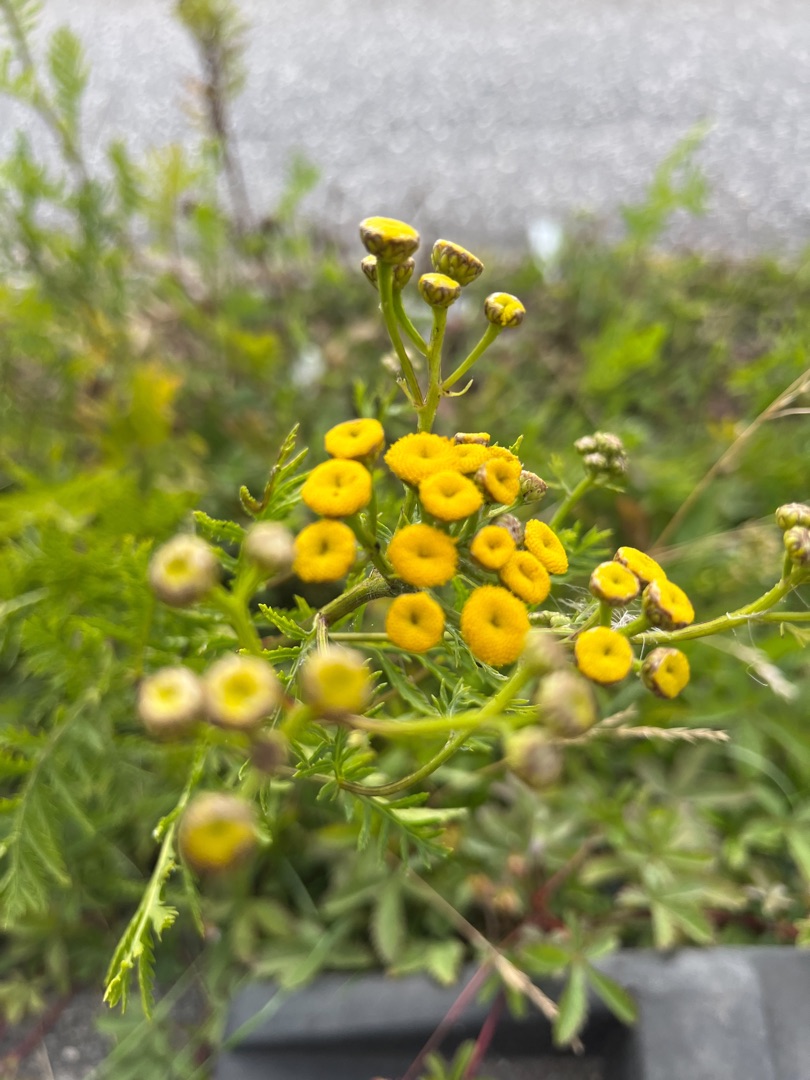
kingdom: Plantae
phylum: Tracheophyta
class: Magnoliopsida
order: Asterales
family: Asteraceae
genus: Tanacetum
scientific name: Tanacetum vulgare
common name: Rejnfan
